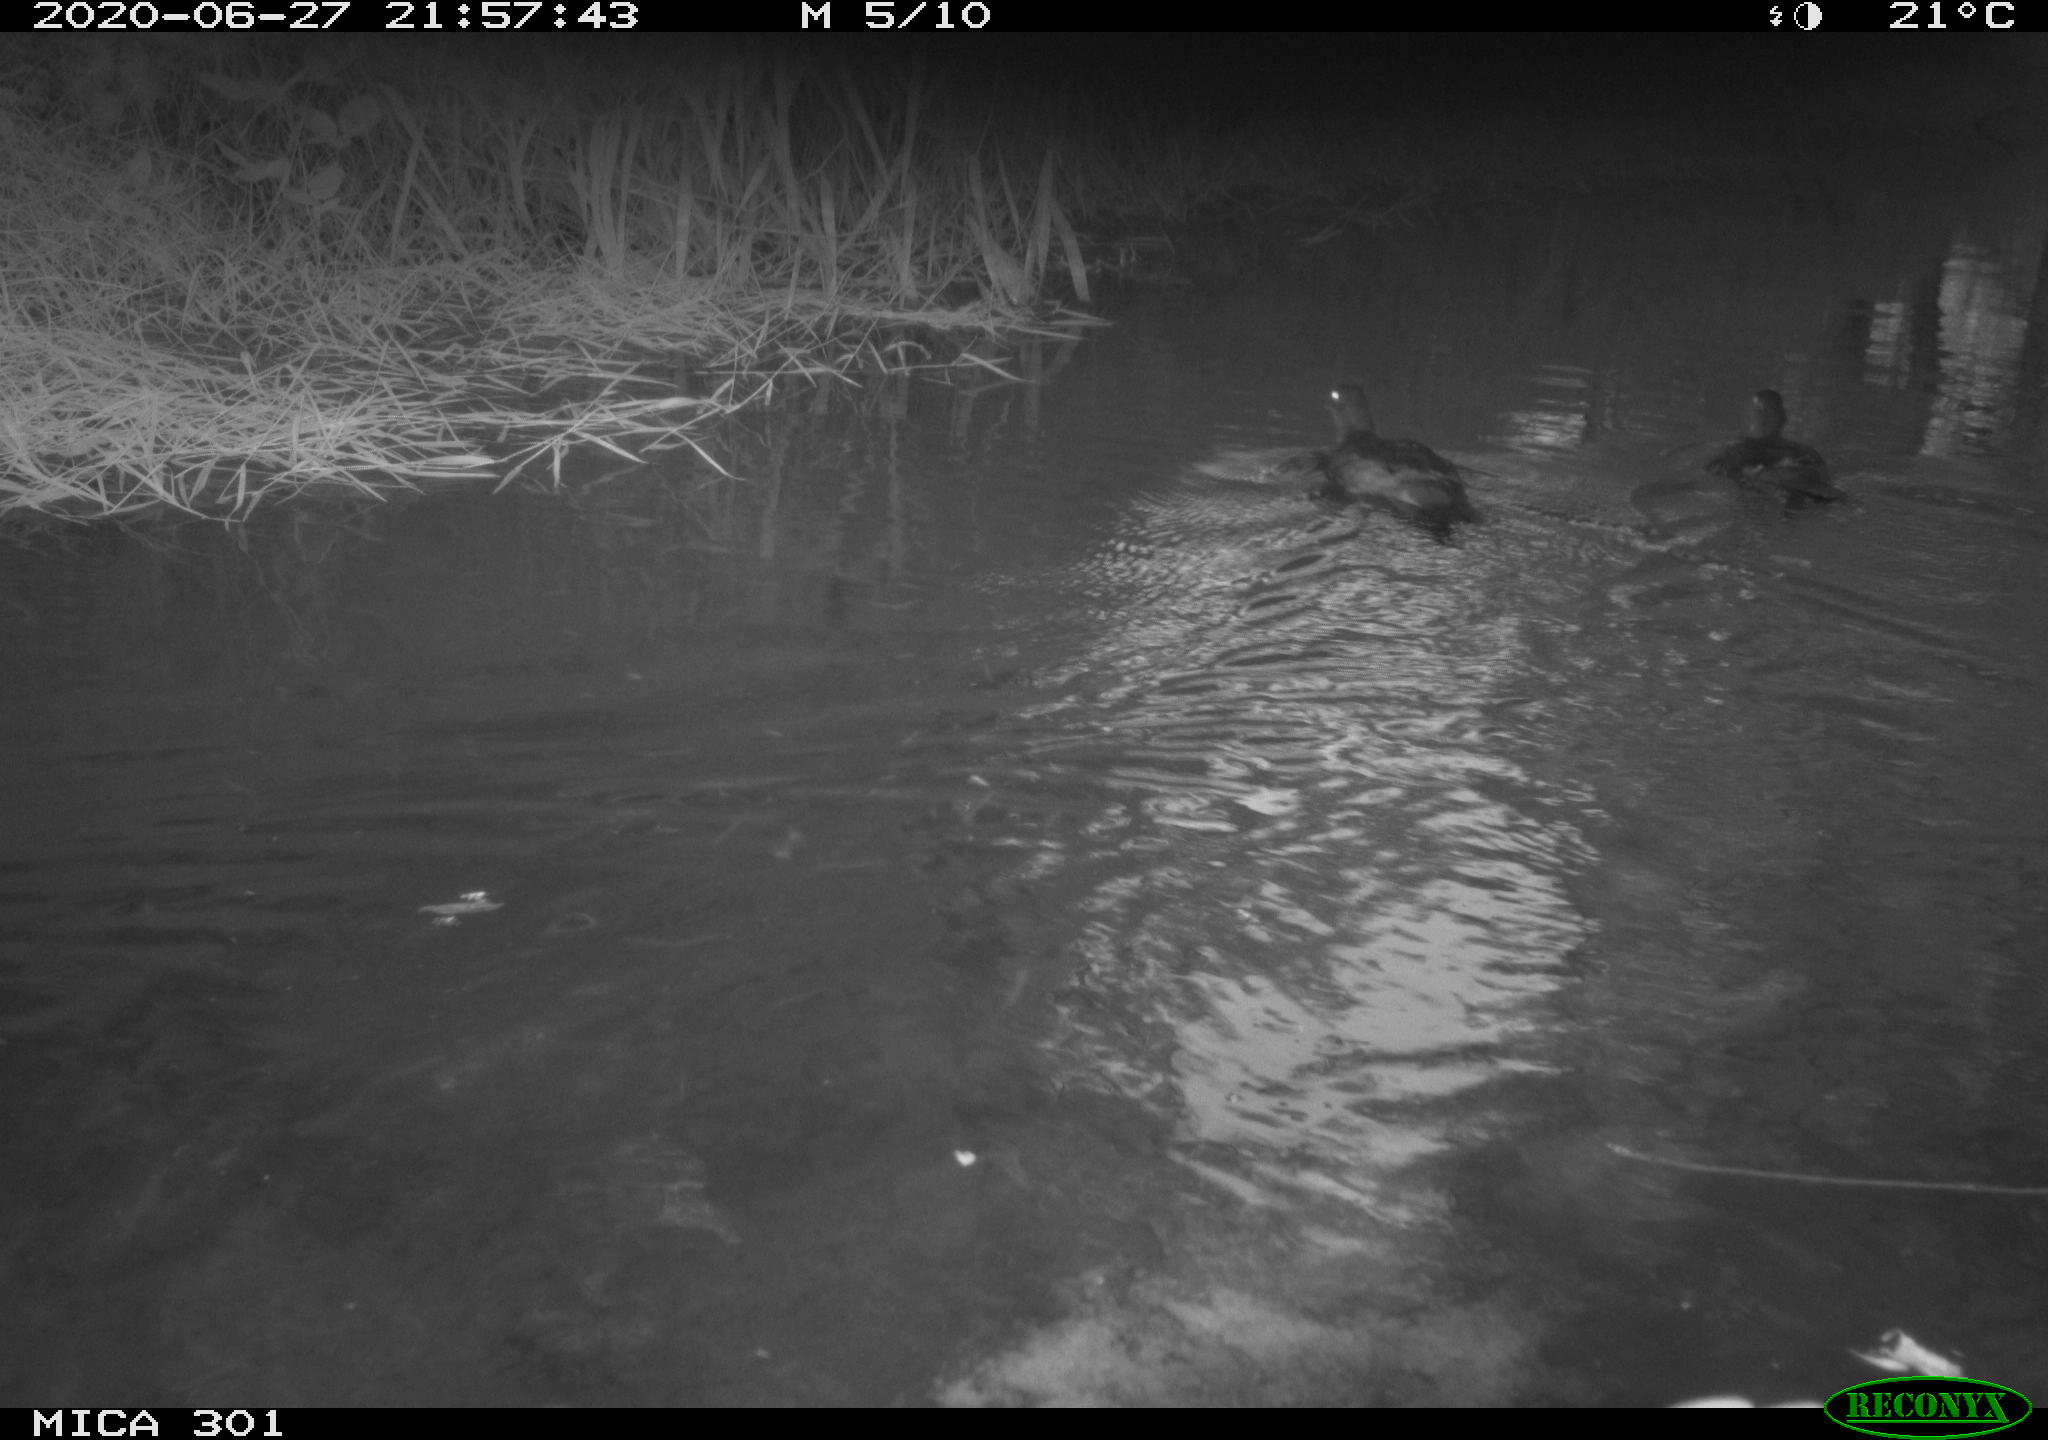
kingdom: Animalia
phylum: Chordata
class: Aves
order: Anseriformes
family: Anatidae
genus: Aix
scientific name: Aix galericulata
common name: Mandarin duck
